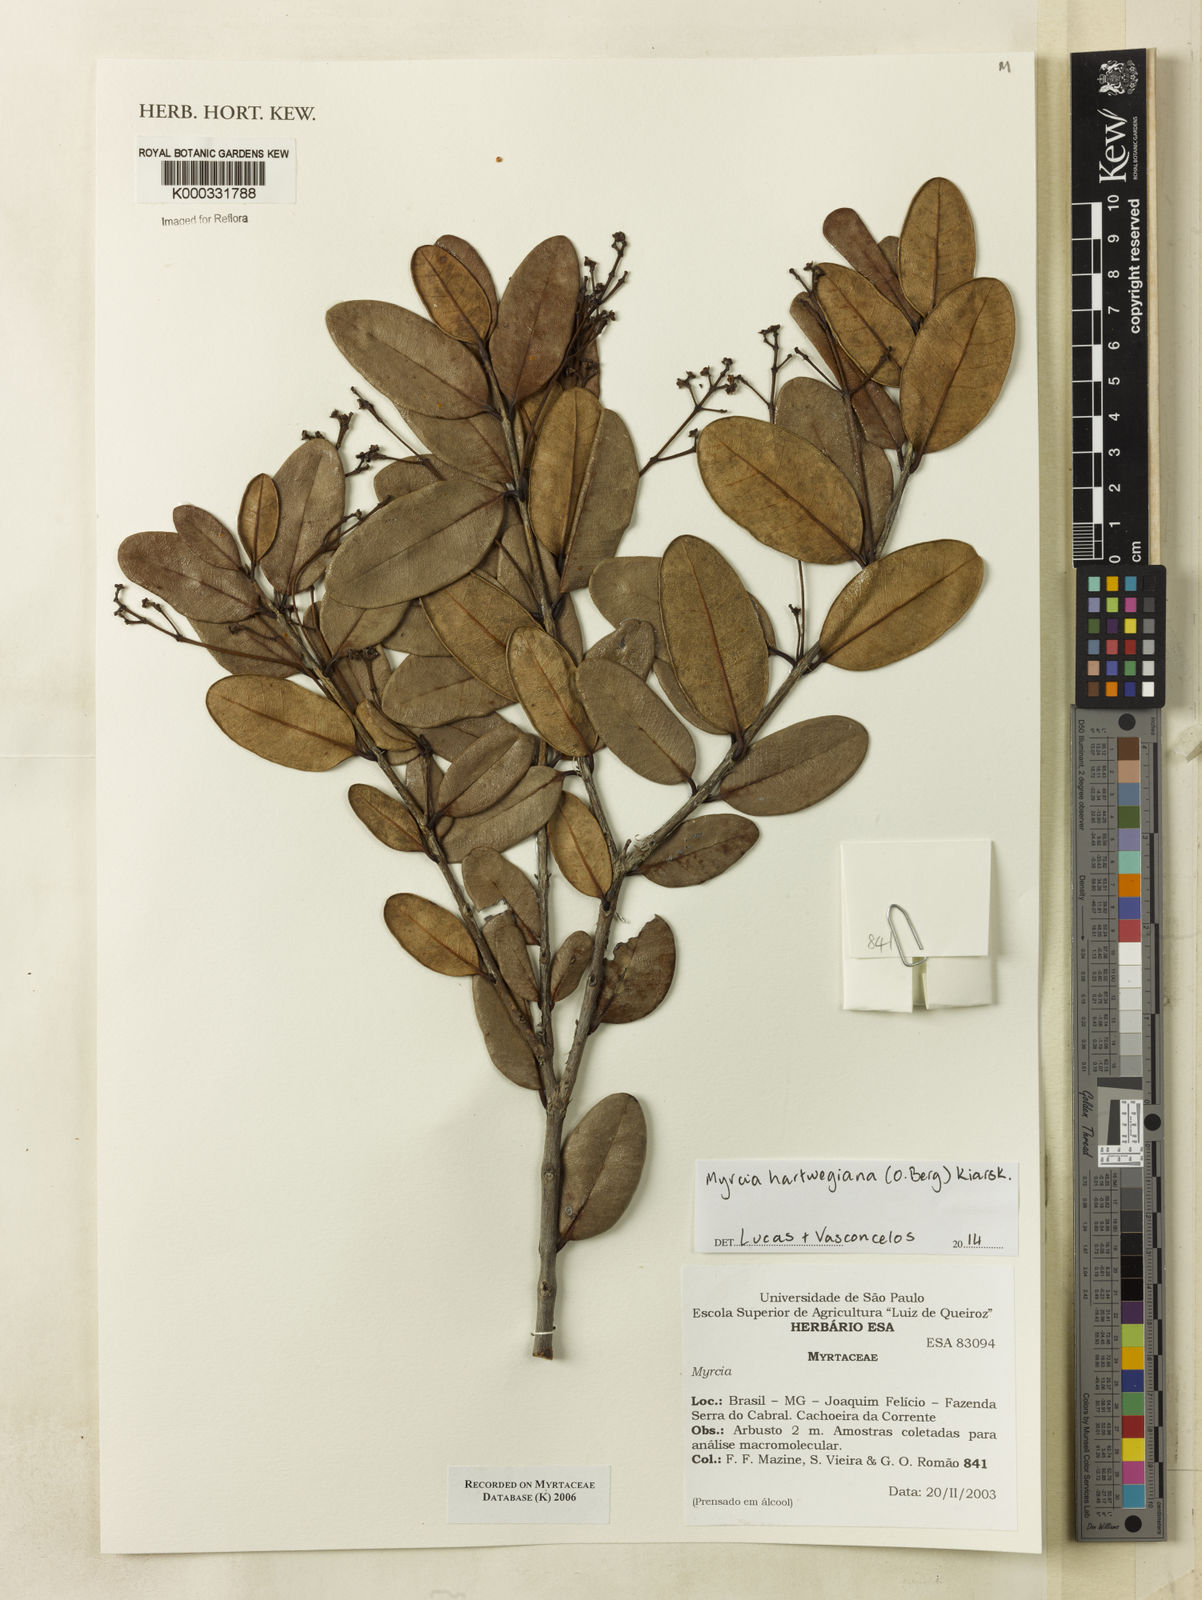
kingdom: Plantae
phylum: Tracheophyta
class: Magnoliopsida
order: Myrtales
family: Myrtaceae
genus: Myrcia
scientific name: Myrcia
